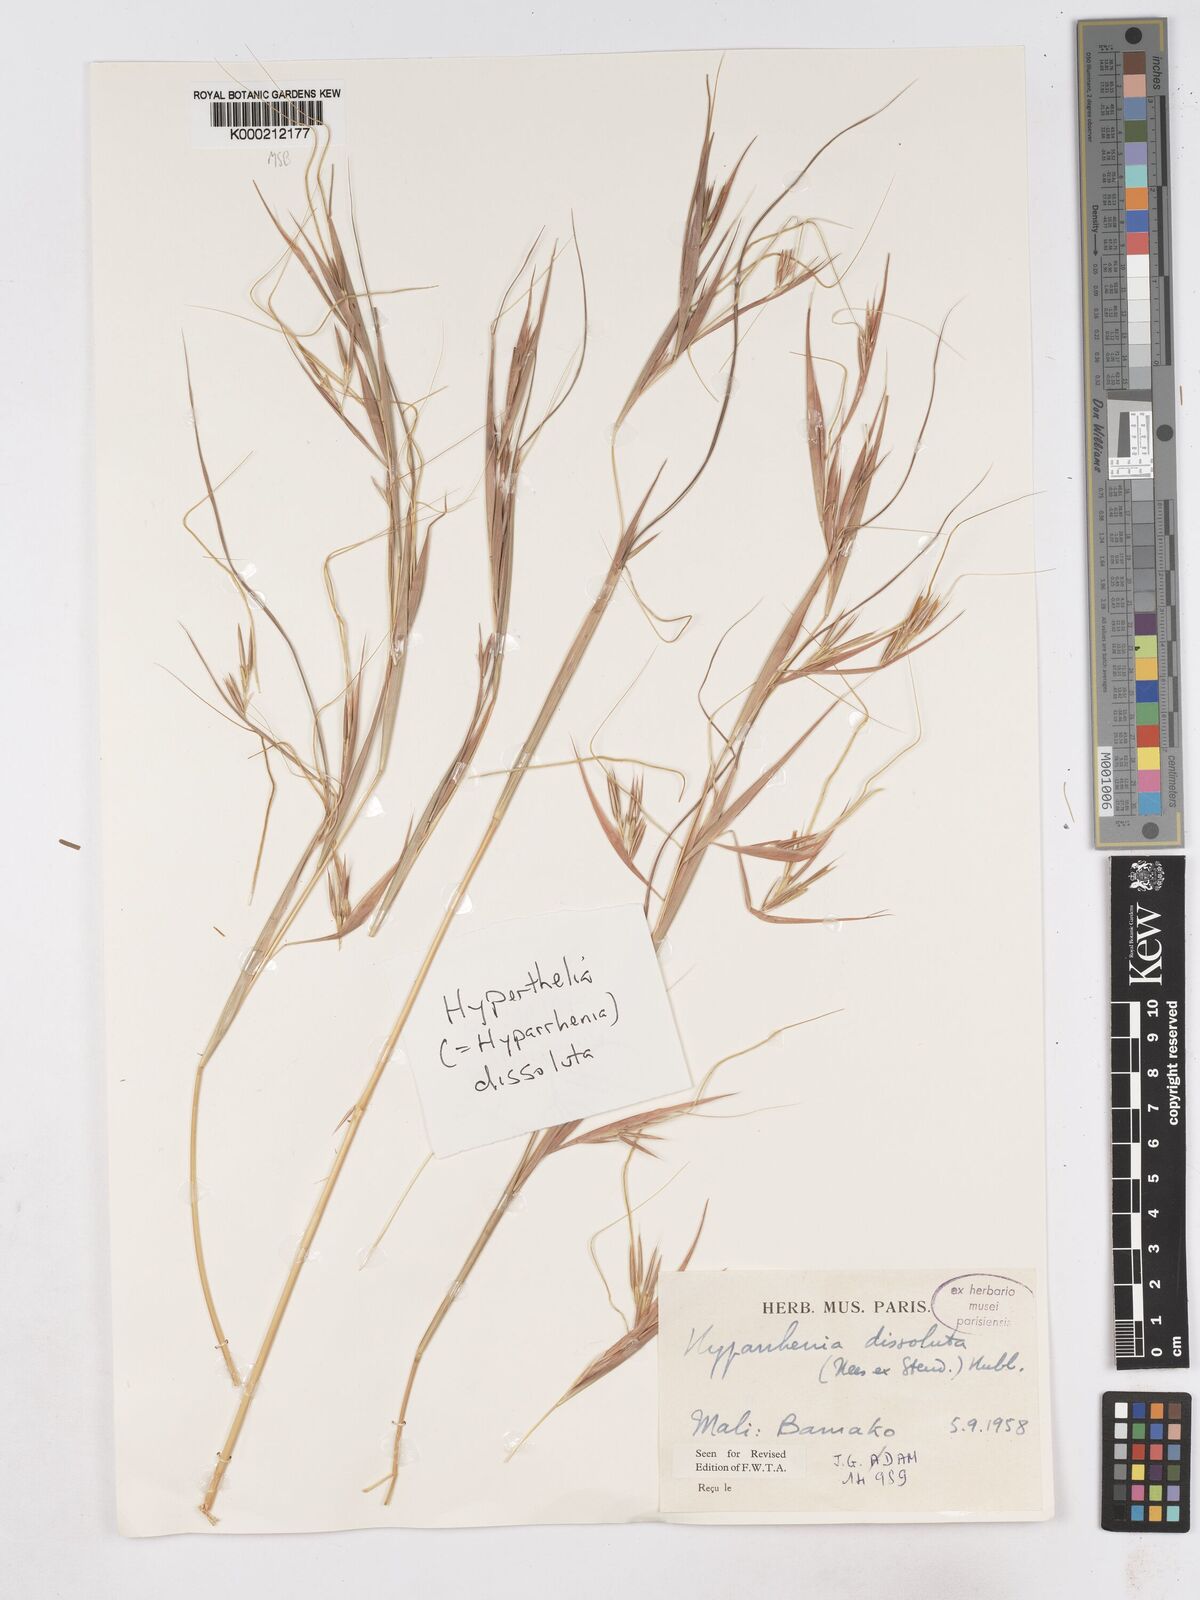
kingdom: Plantae
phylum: Tracheophyta
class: Liliopsida
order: Poales
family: Poaceae
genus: Hyperthelia
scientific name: Hyperthelia dissoluta
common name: Yellow thatching grass
